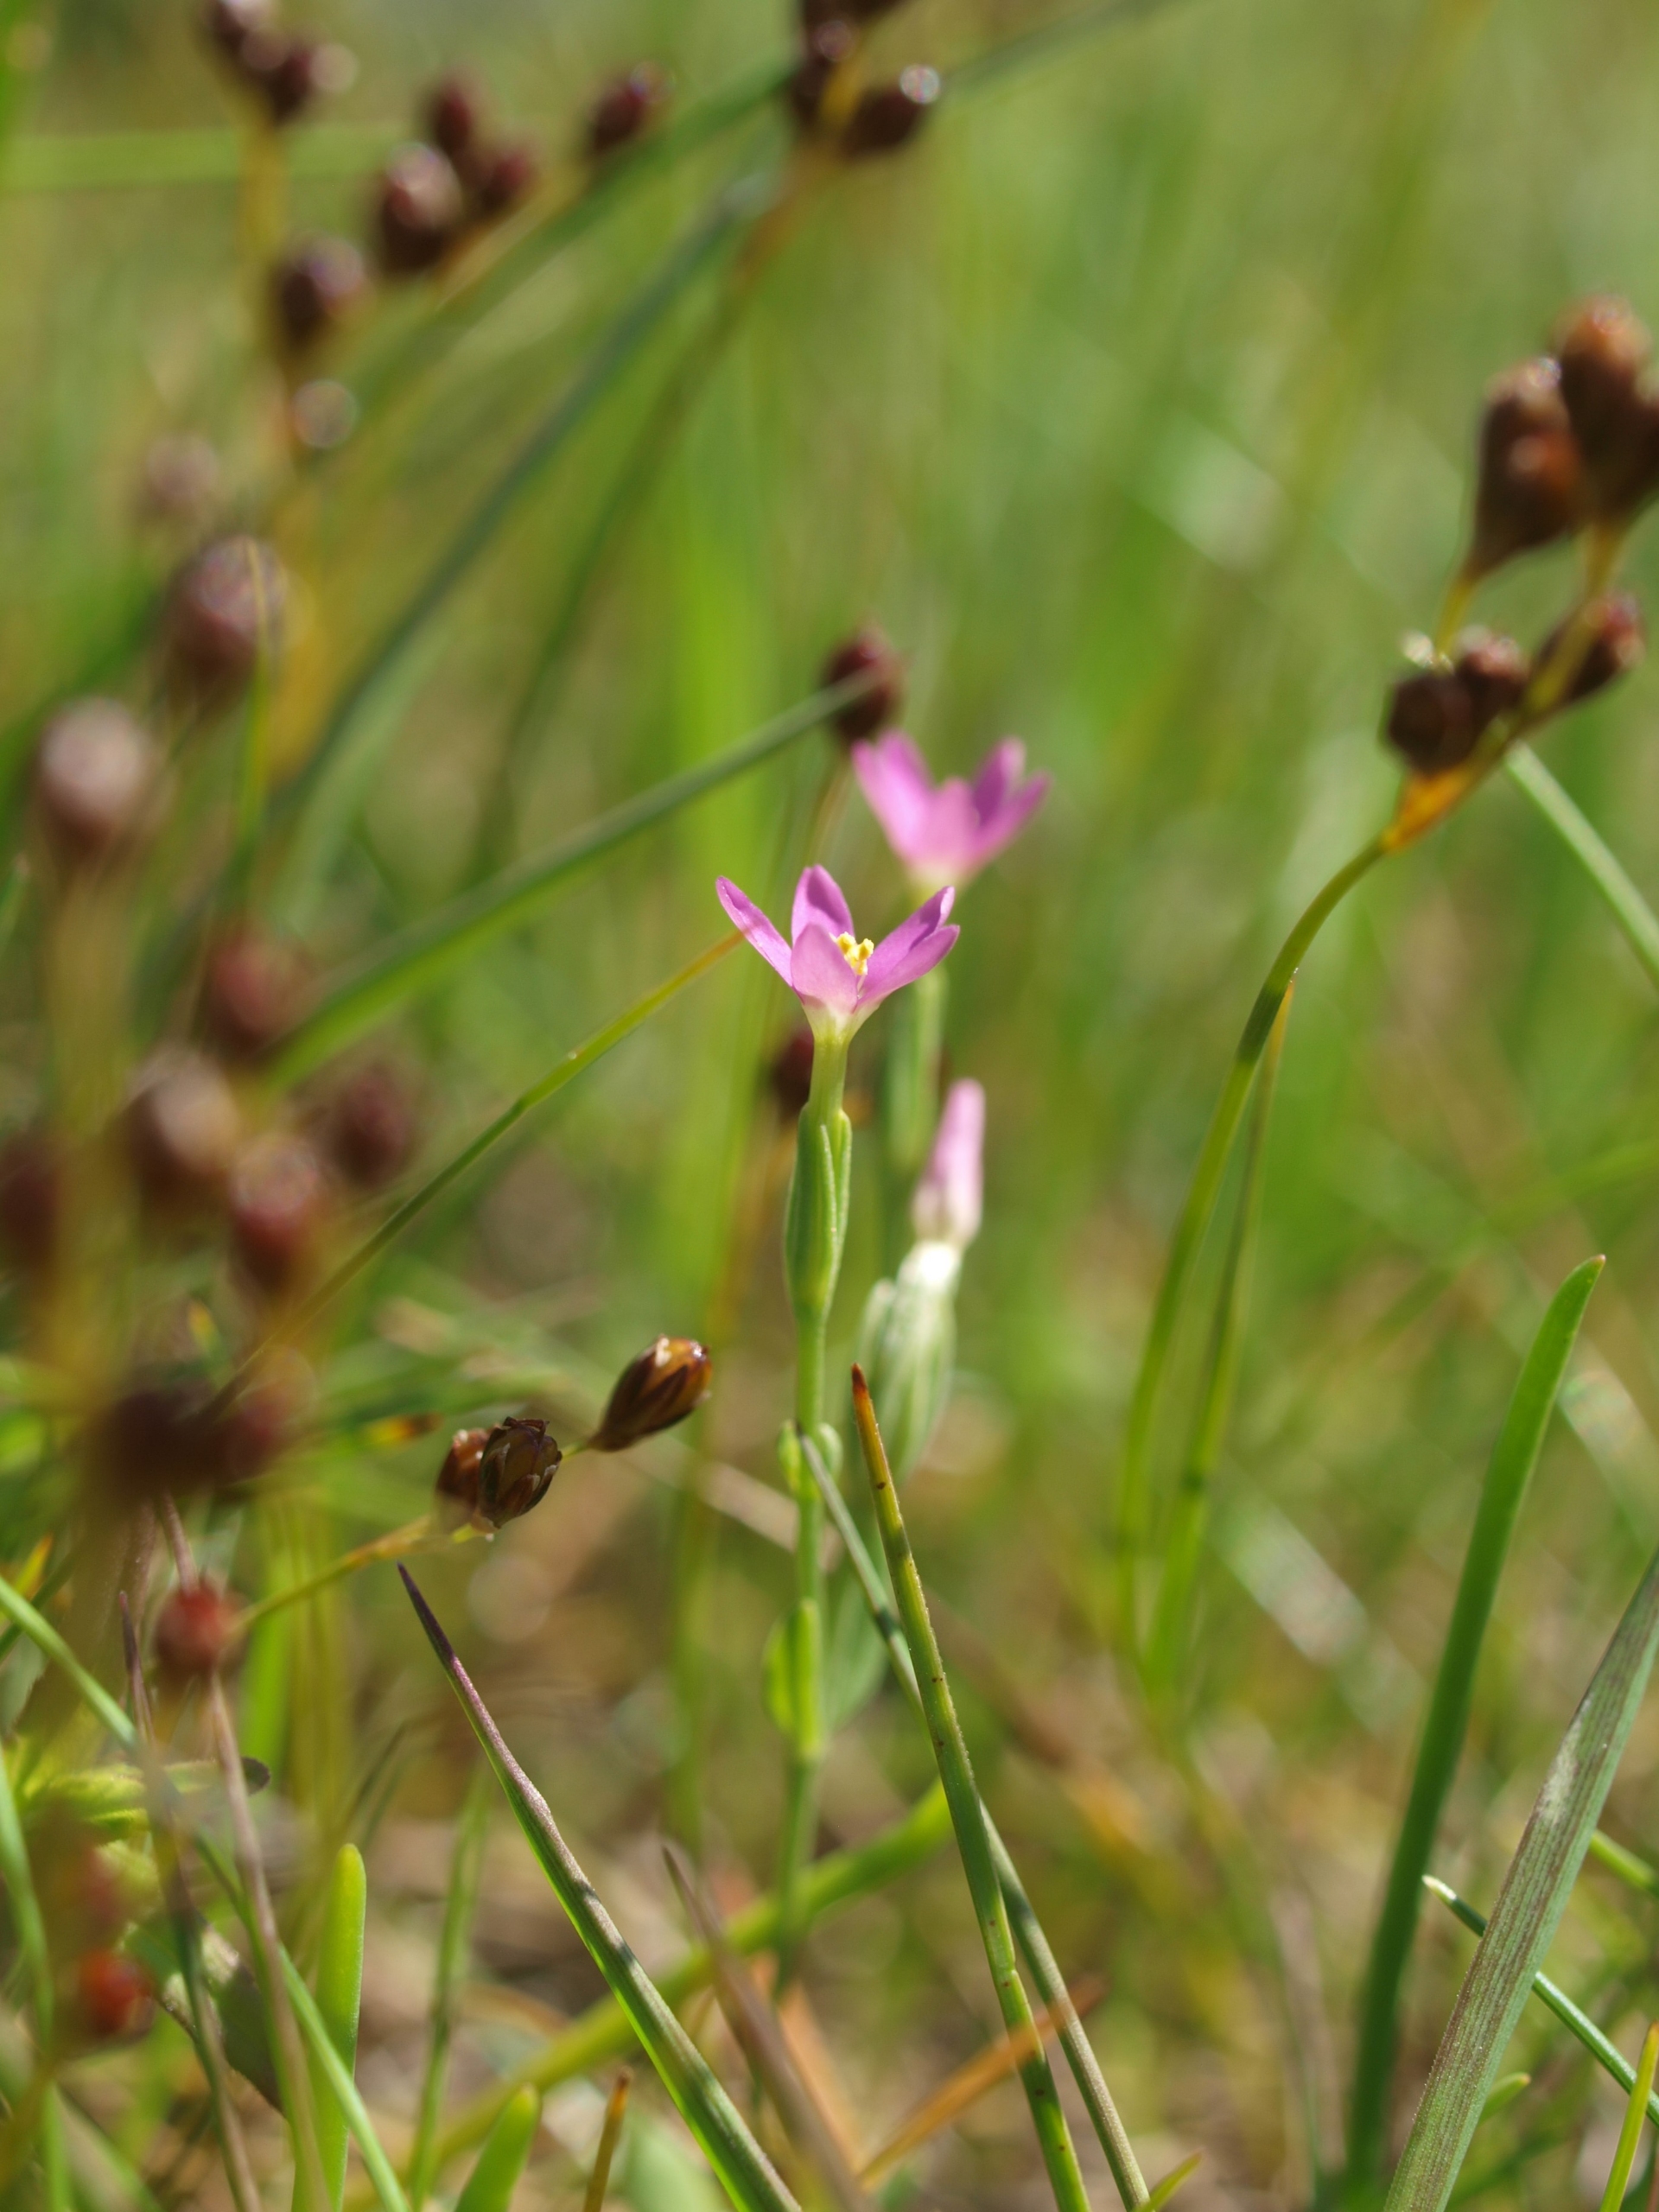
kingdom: Plantae
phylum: Tracheophyta
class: Magnoliopsida
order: Gentianales
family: Gentianaceae
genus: Centaurium
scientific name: Centaurium pulchellum
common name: Liden tusindgylden
